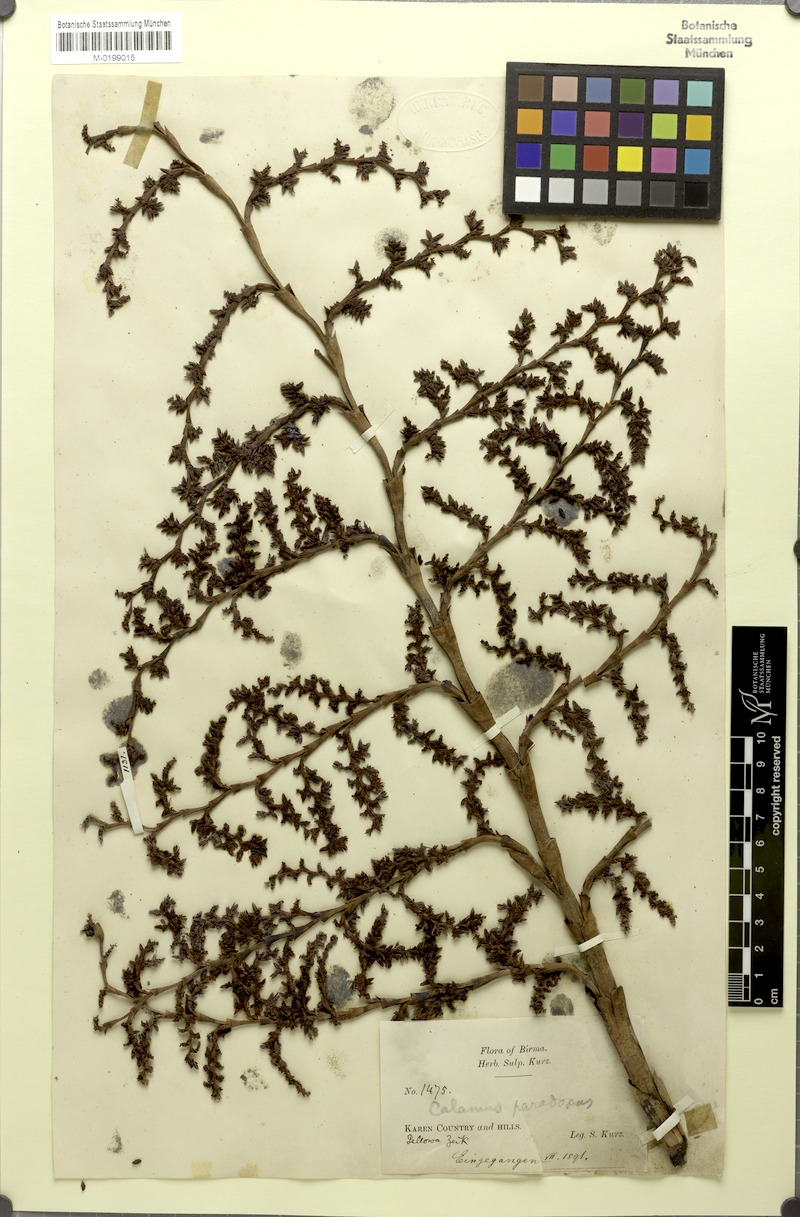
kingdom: Plantae
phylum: Tracheophyta
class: Liliopsida
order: Arecales
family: Arecaceae
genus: Myrialepis
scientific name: Myrialepis paradoxa
